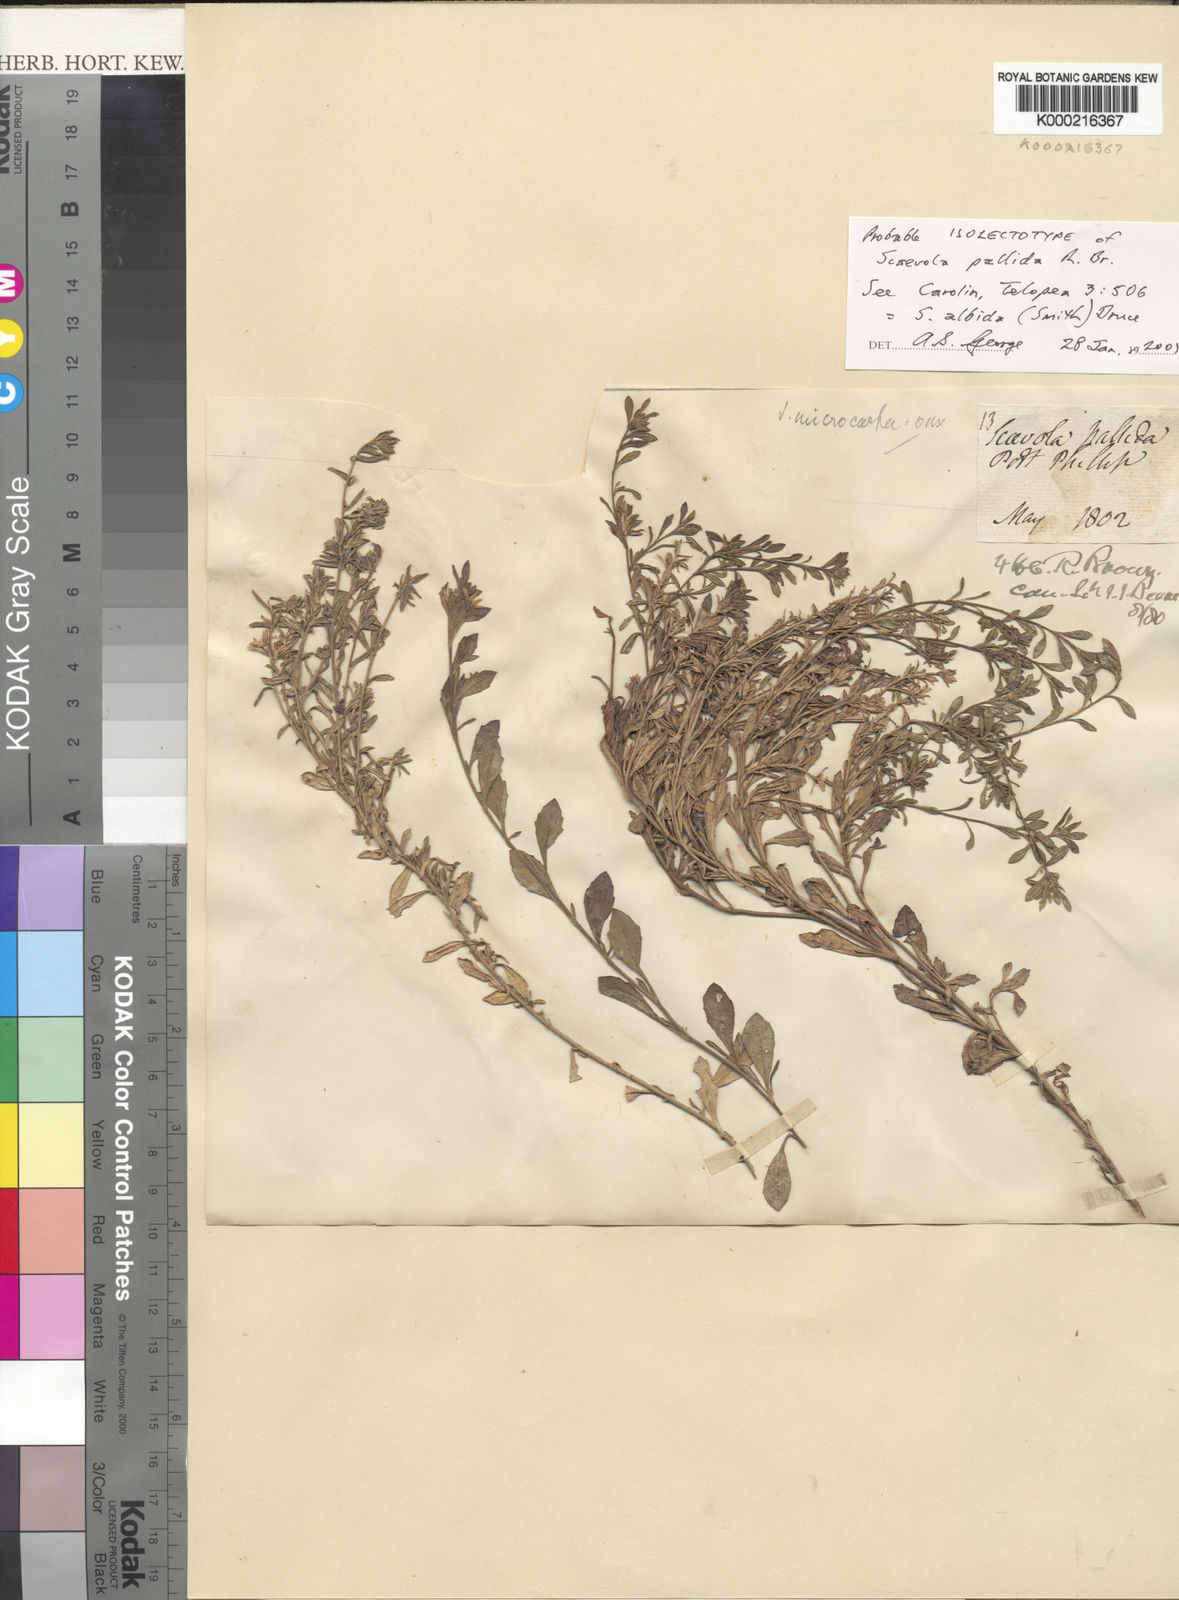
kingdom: Plantae
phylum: Tracheophyta
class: Magnoliopsida
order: Asterales
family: Goodeniaceae
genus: Scaevola
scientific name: Scaevola albida
